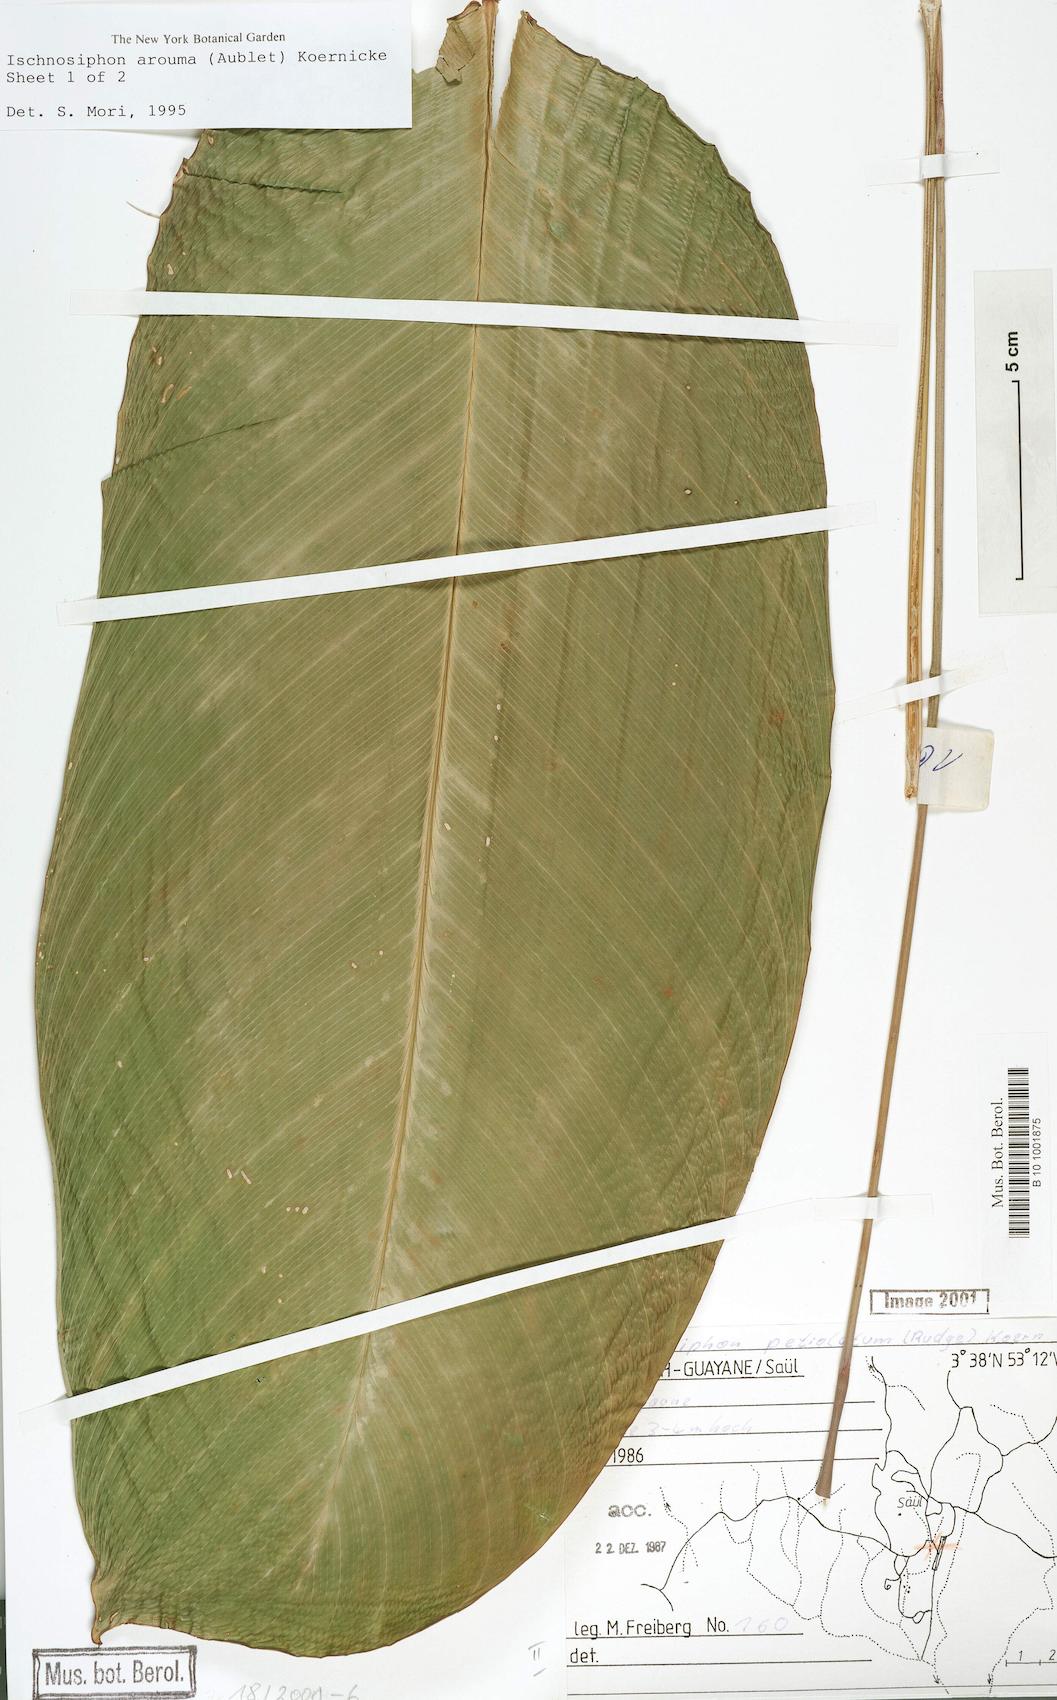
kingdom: Plantae
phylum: Tracheophyta
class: Liliopsida
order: Zingiberales
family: Marantaceae
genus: Ischnosiphon
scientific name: Ischnosiphon arouma
